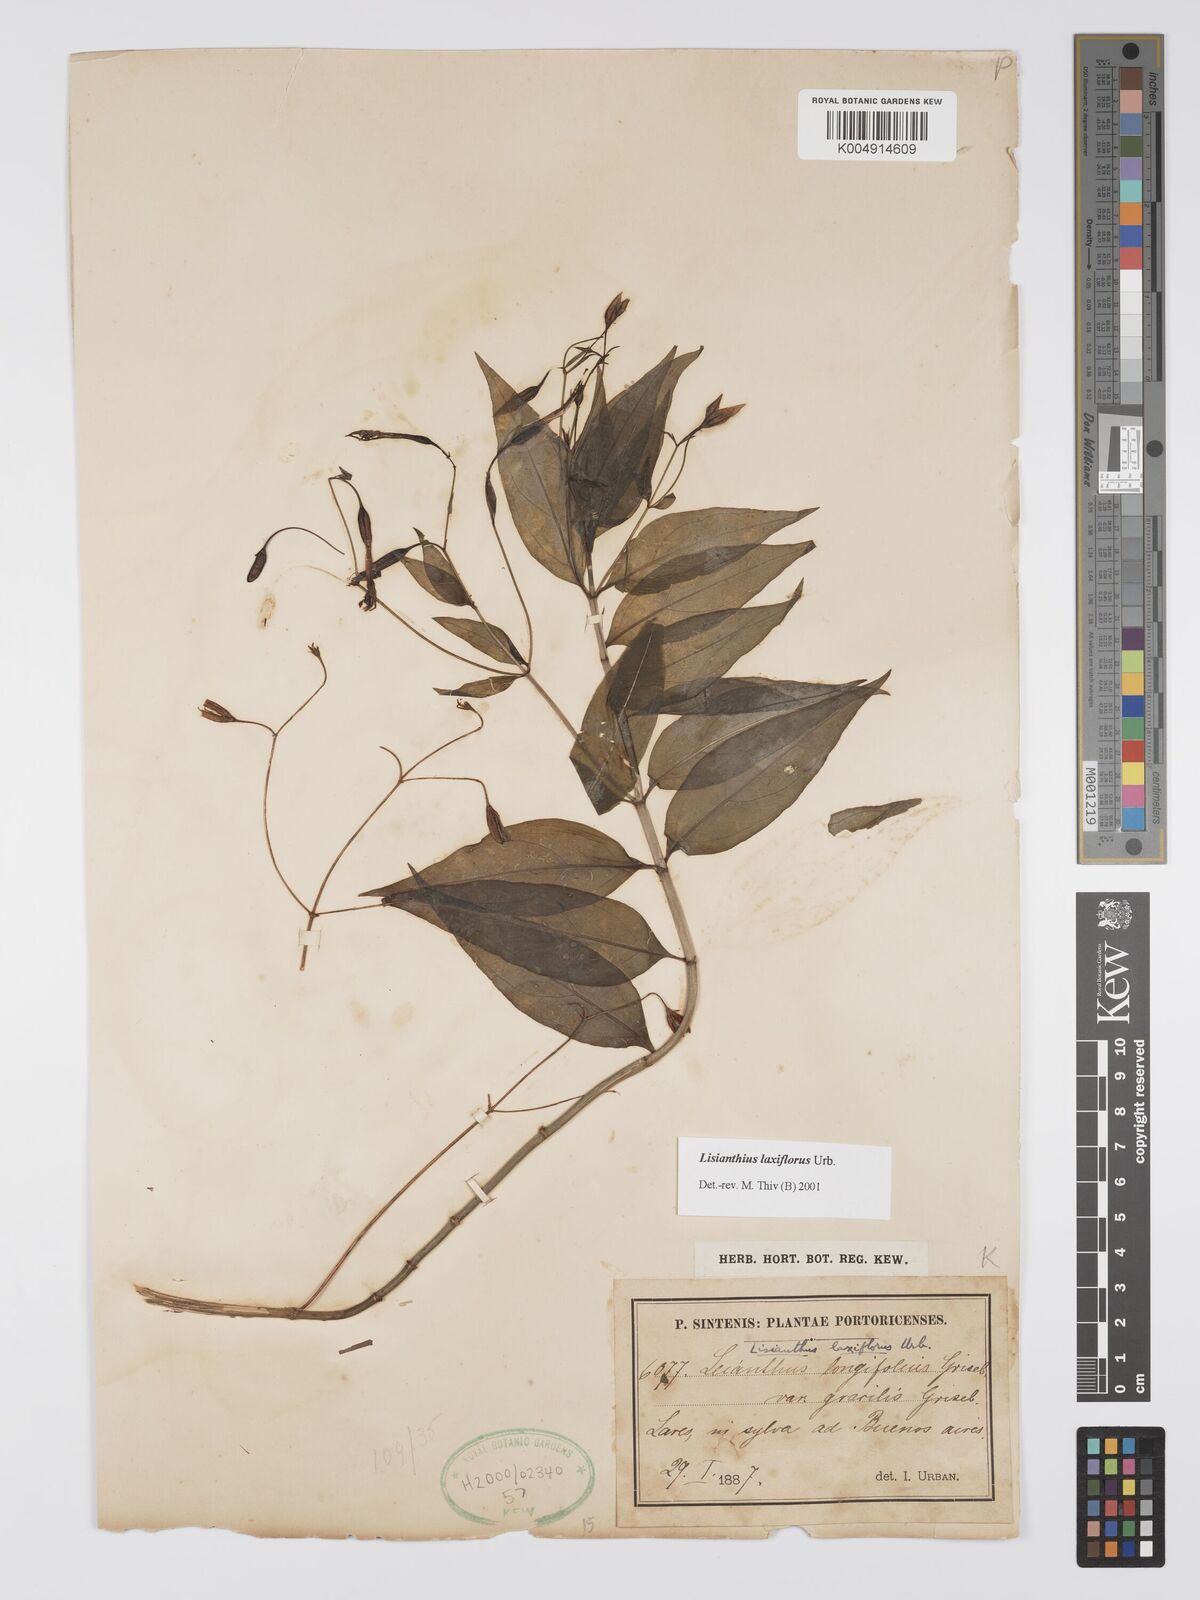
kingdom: Plantae
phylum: Tracheophyta
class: Magnoliopsida
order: Gentianales
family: Gentianaceae
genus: Lisianthius
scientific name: Lisianthius laxiflorus
